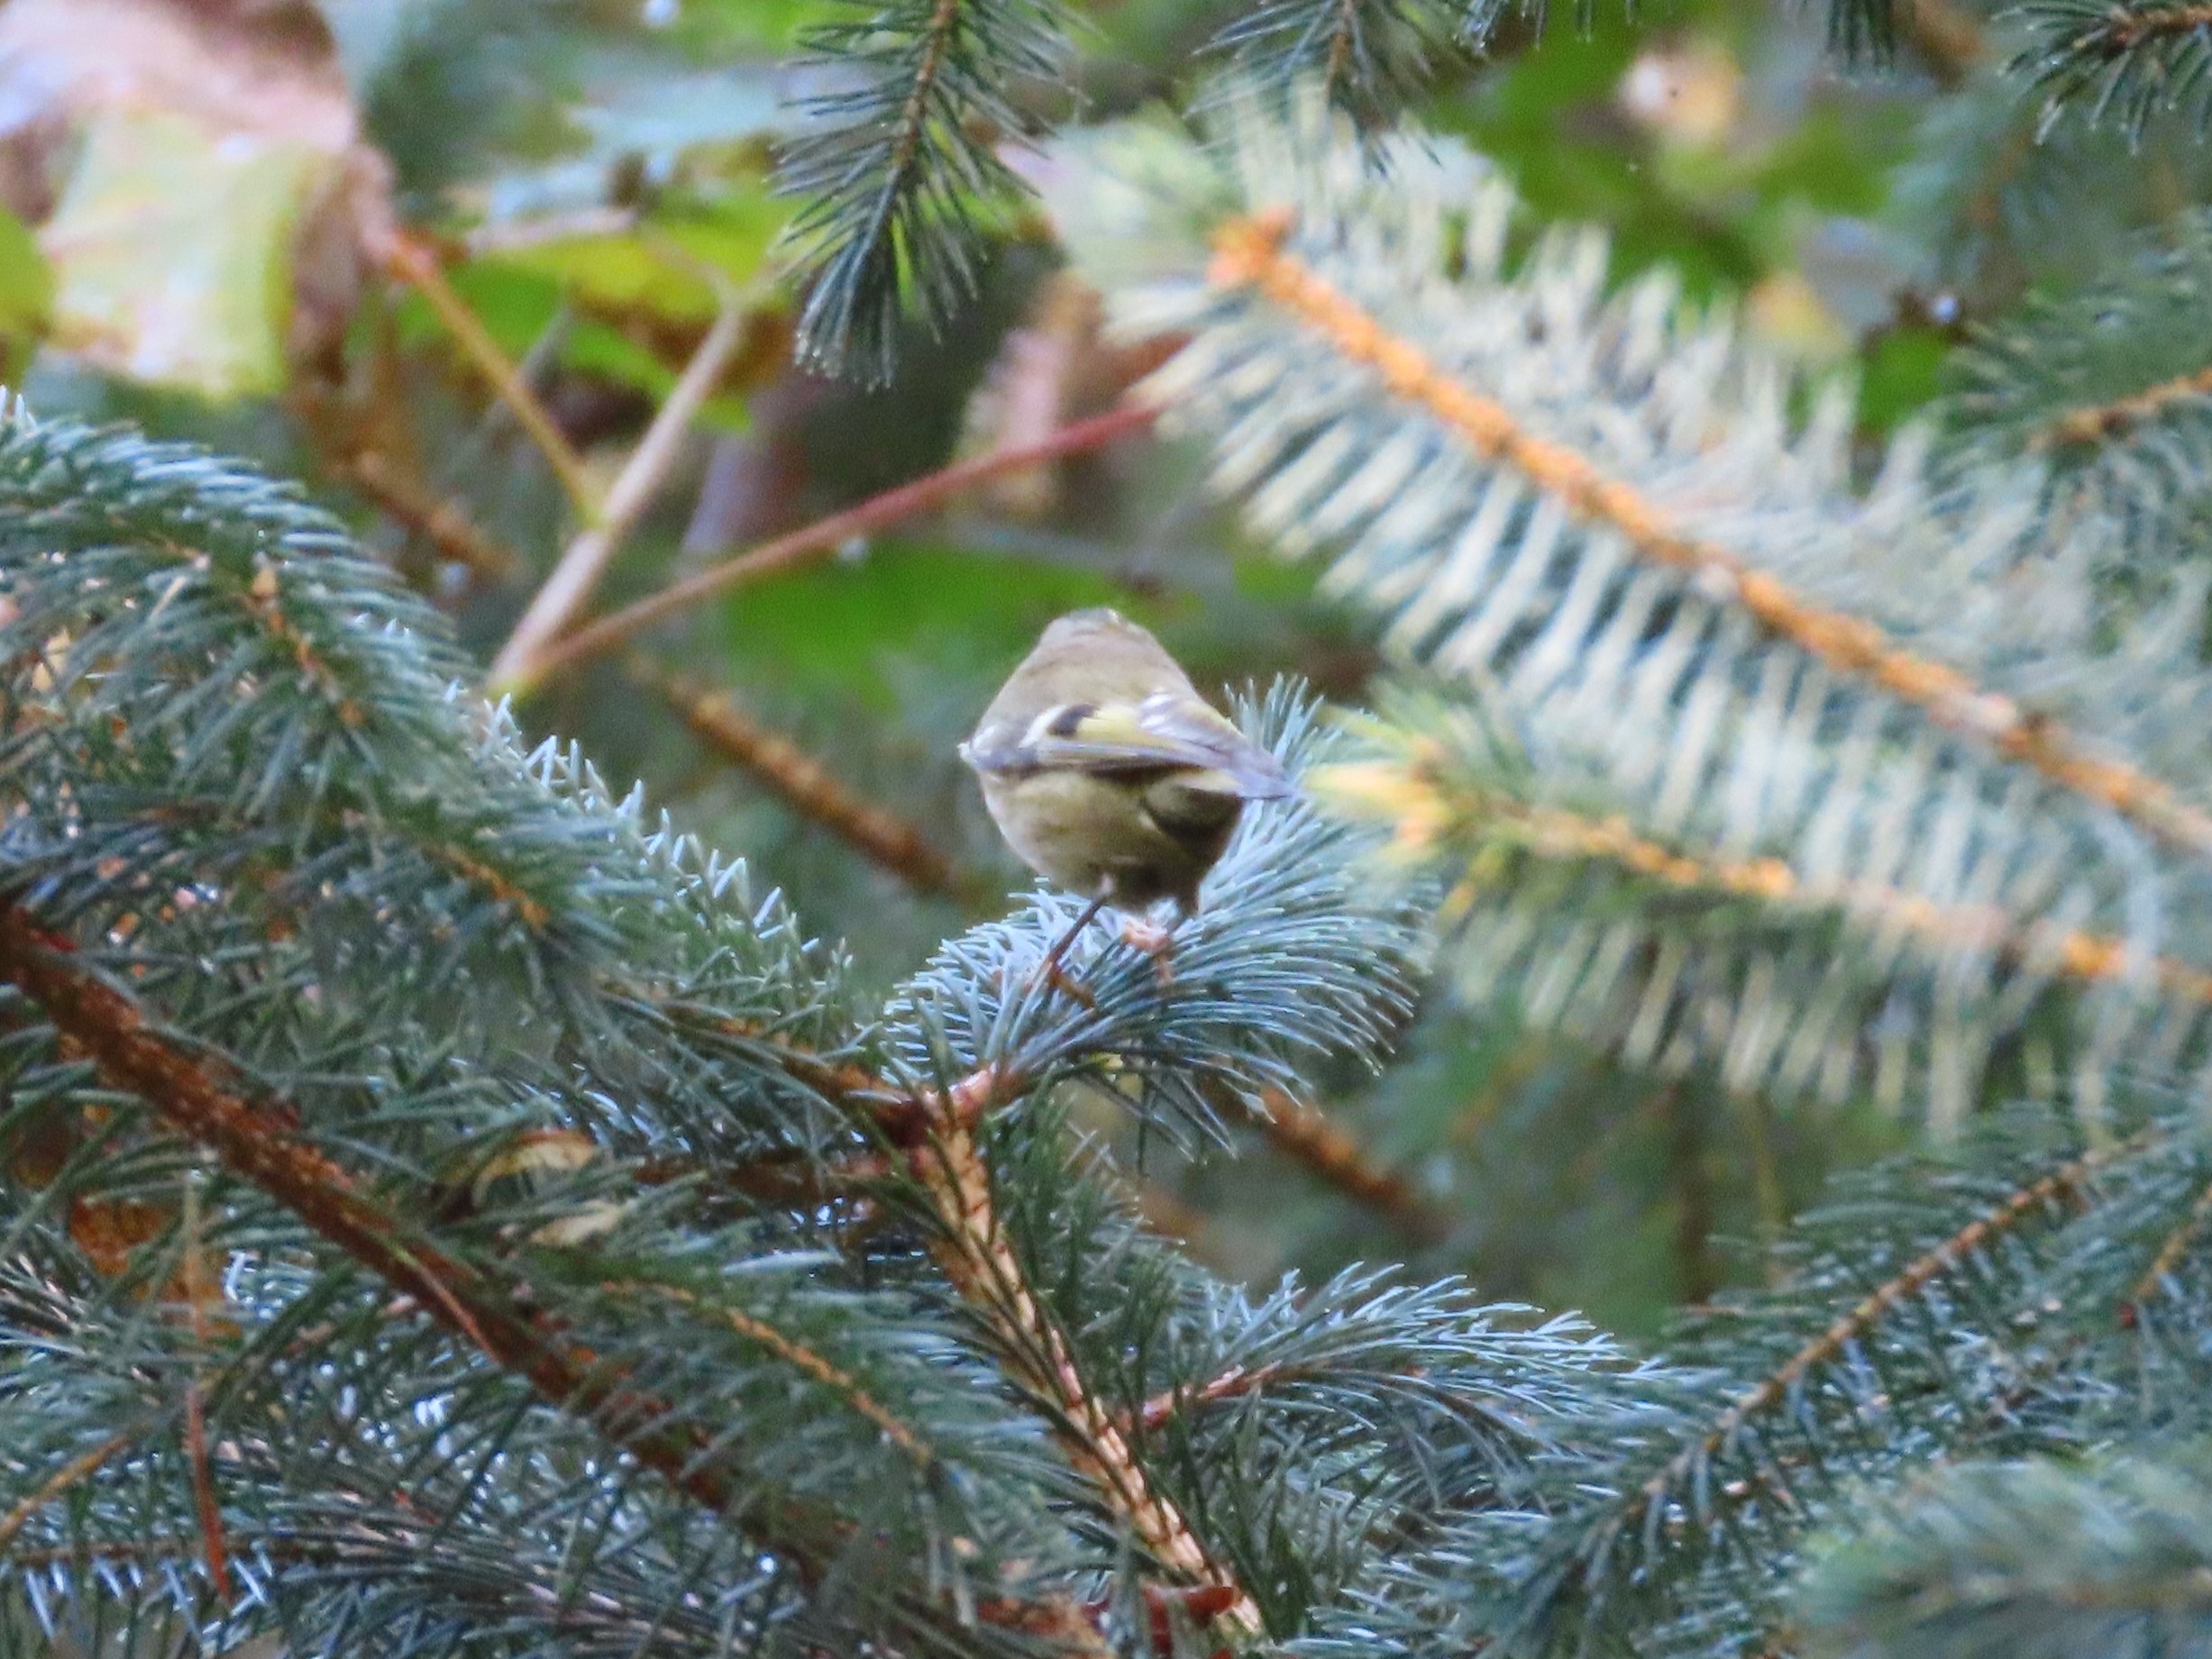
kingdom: Animalia
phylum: Chordata
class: Aves
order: Passeriformes
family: Regulidae
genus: Regulus
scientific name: Regulus regulus
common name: Fuglekonge
